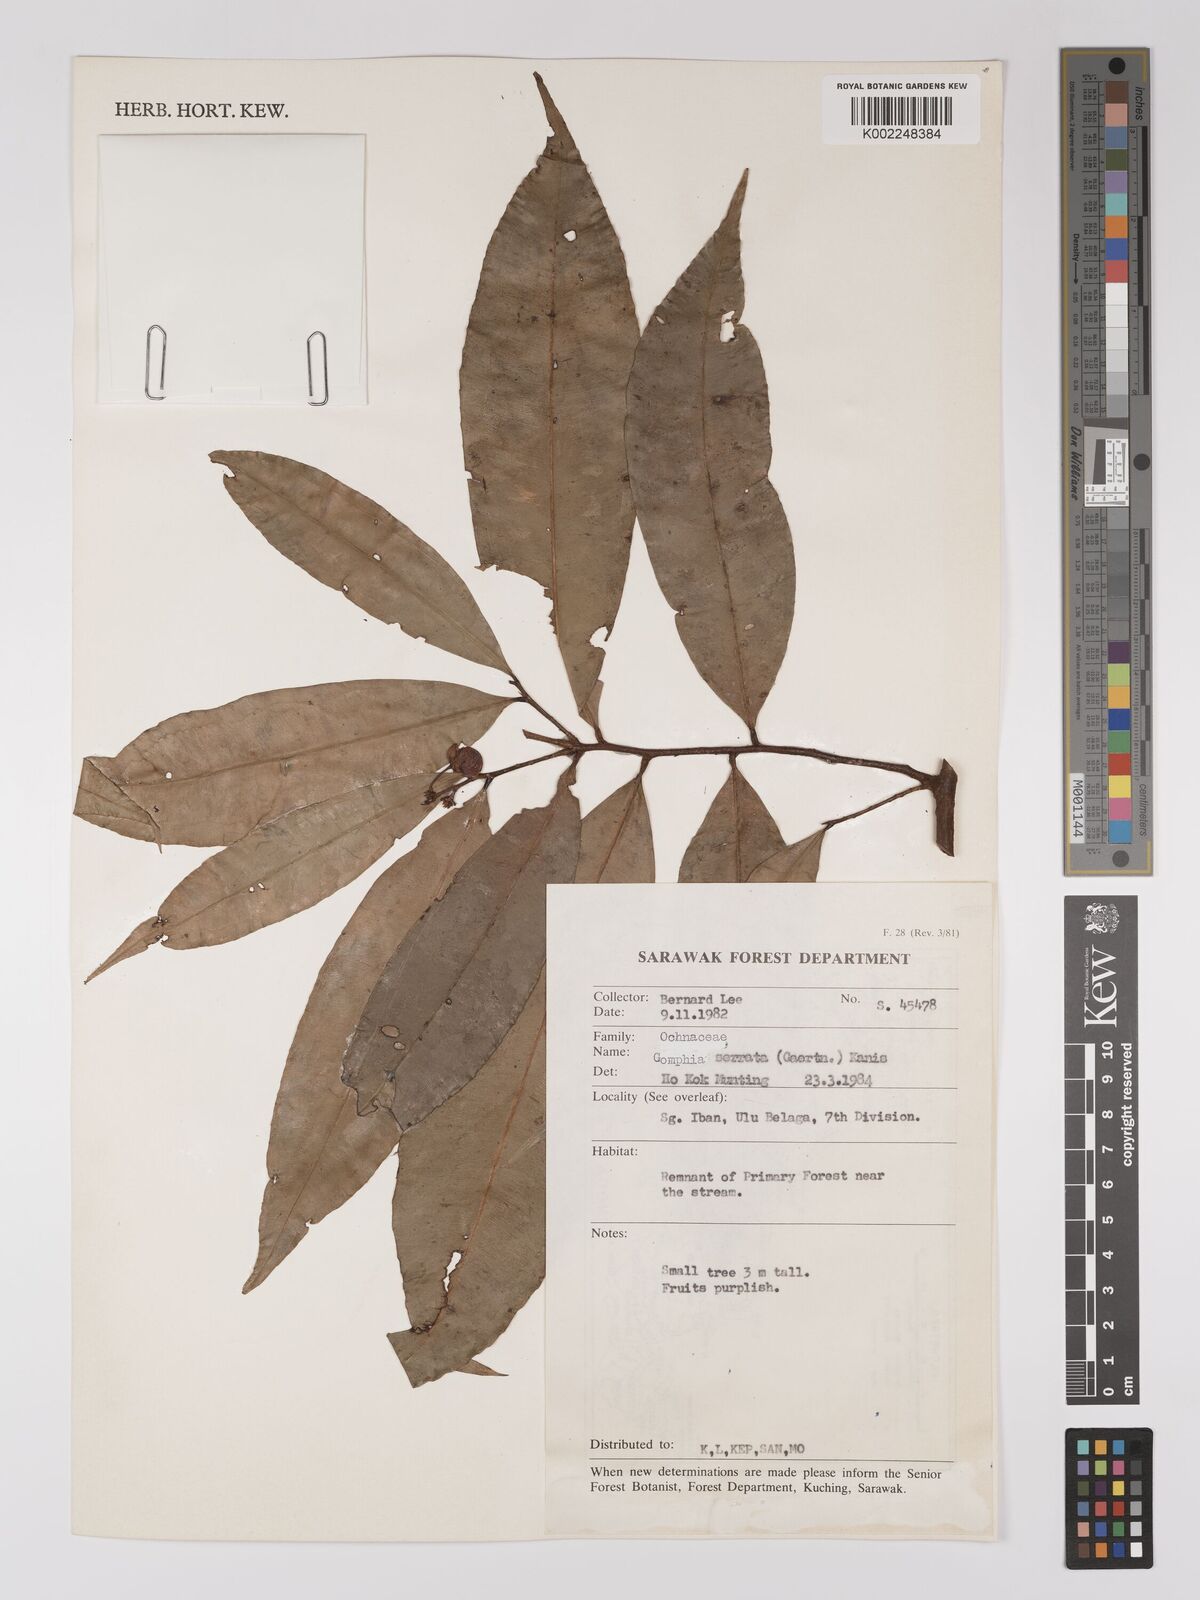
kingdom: Plantae
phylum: Tracheophyta
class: Magnoliopsida
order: Malpighiales
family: Ochnaceae
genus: Gomphia
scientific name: Gomphia serrata
